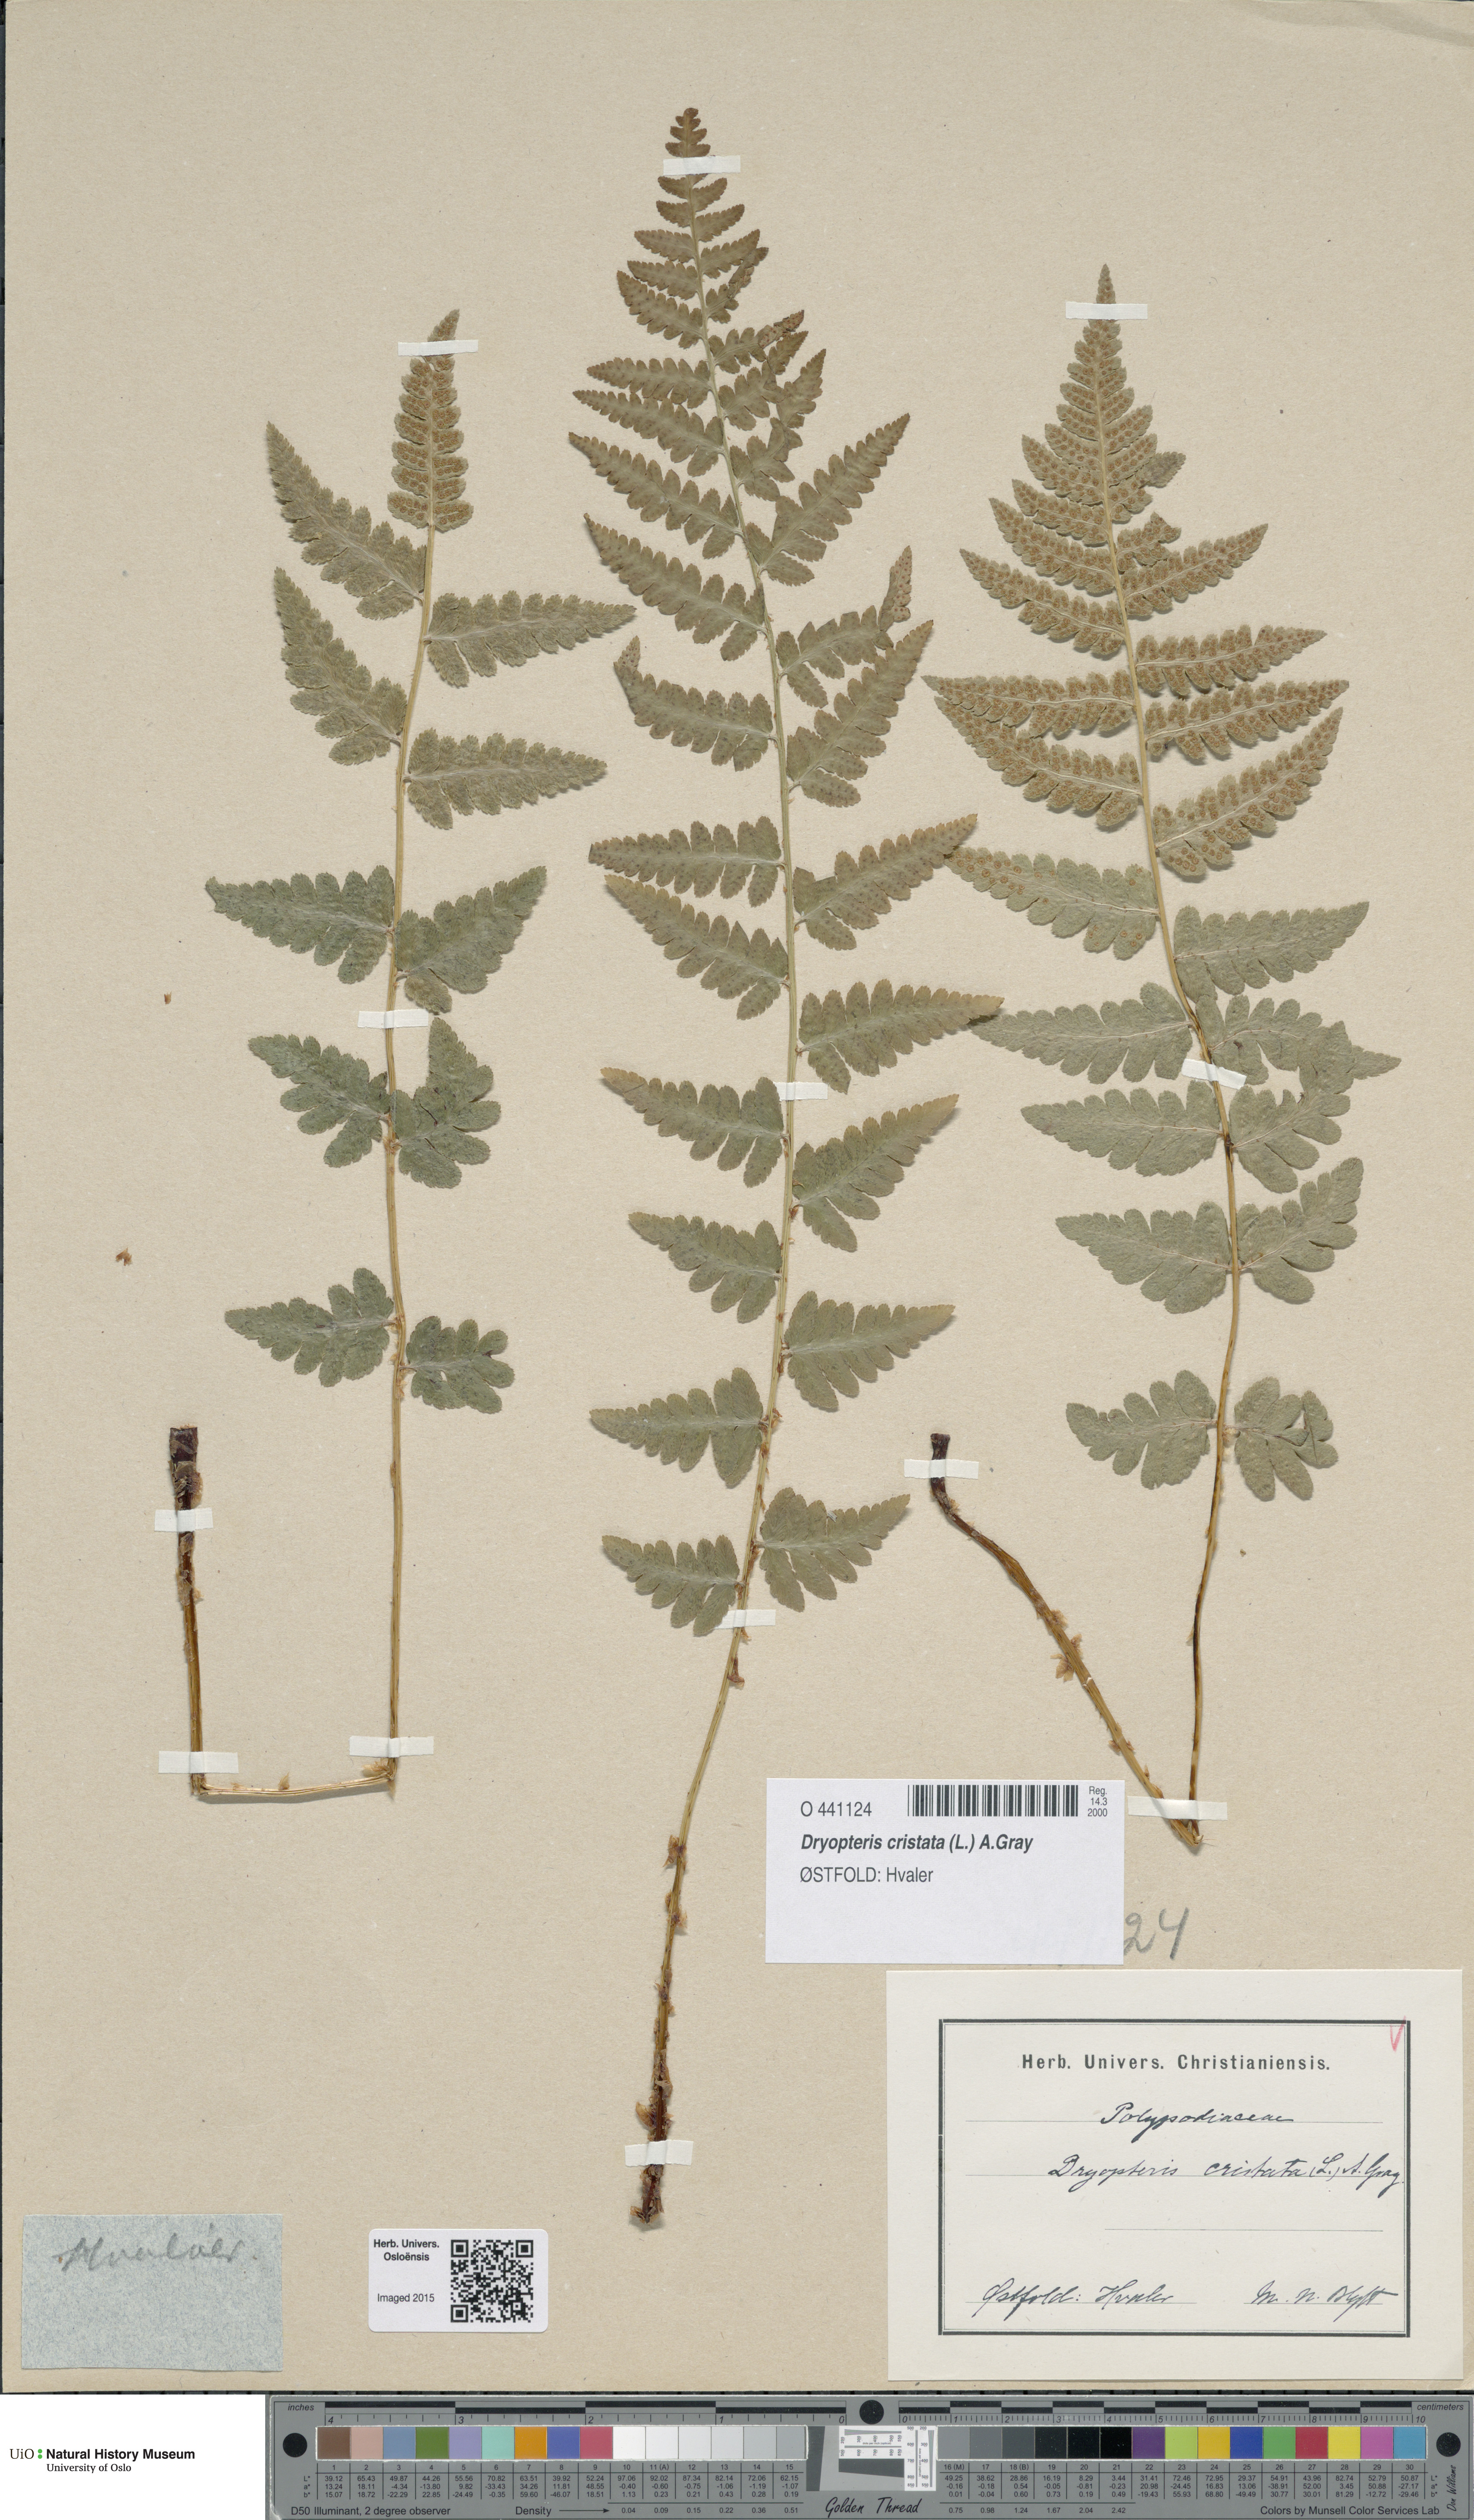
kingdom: Plantae
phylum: Tracheophyta
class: Polypodiopsida
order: Polypodiales
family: Dryopteridaceae
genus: Dryopteris
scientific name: Dryopteris cristata
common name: Crested wood fern
